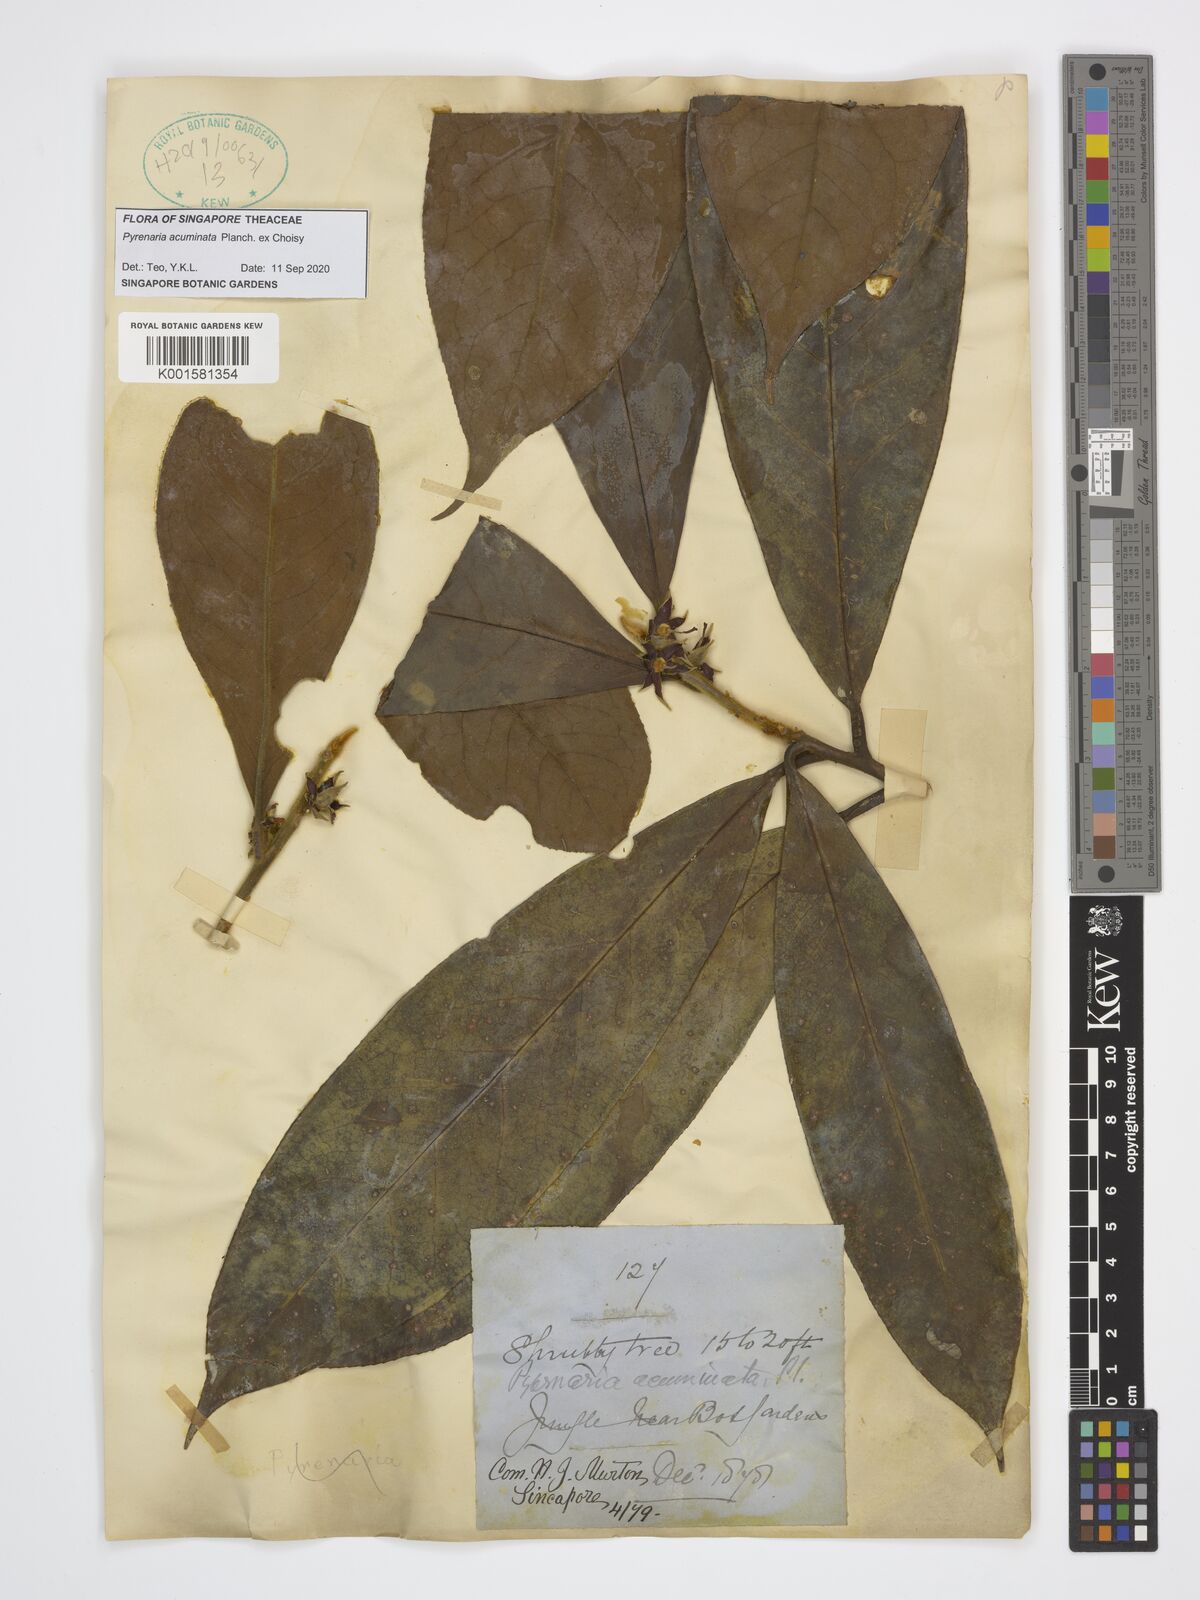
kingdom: Plantae
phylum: Tracheophyta
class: Magnoliopsida
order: Ericales
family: Theaceae
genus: Pyrenaria
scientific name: Pyrenaria acuminata
